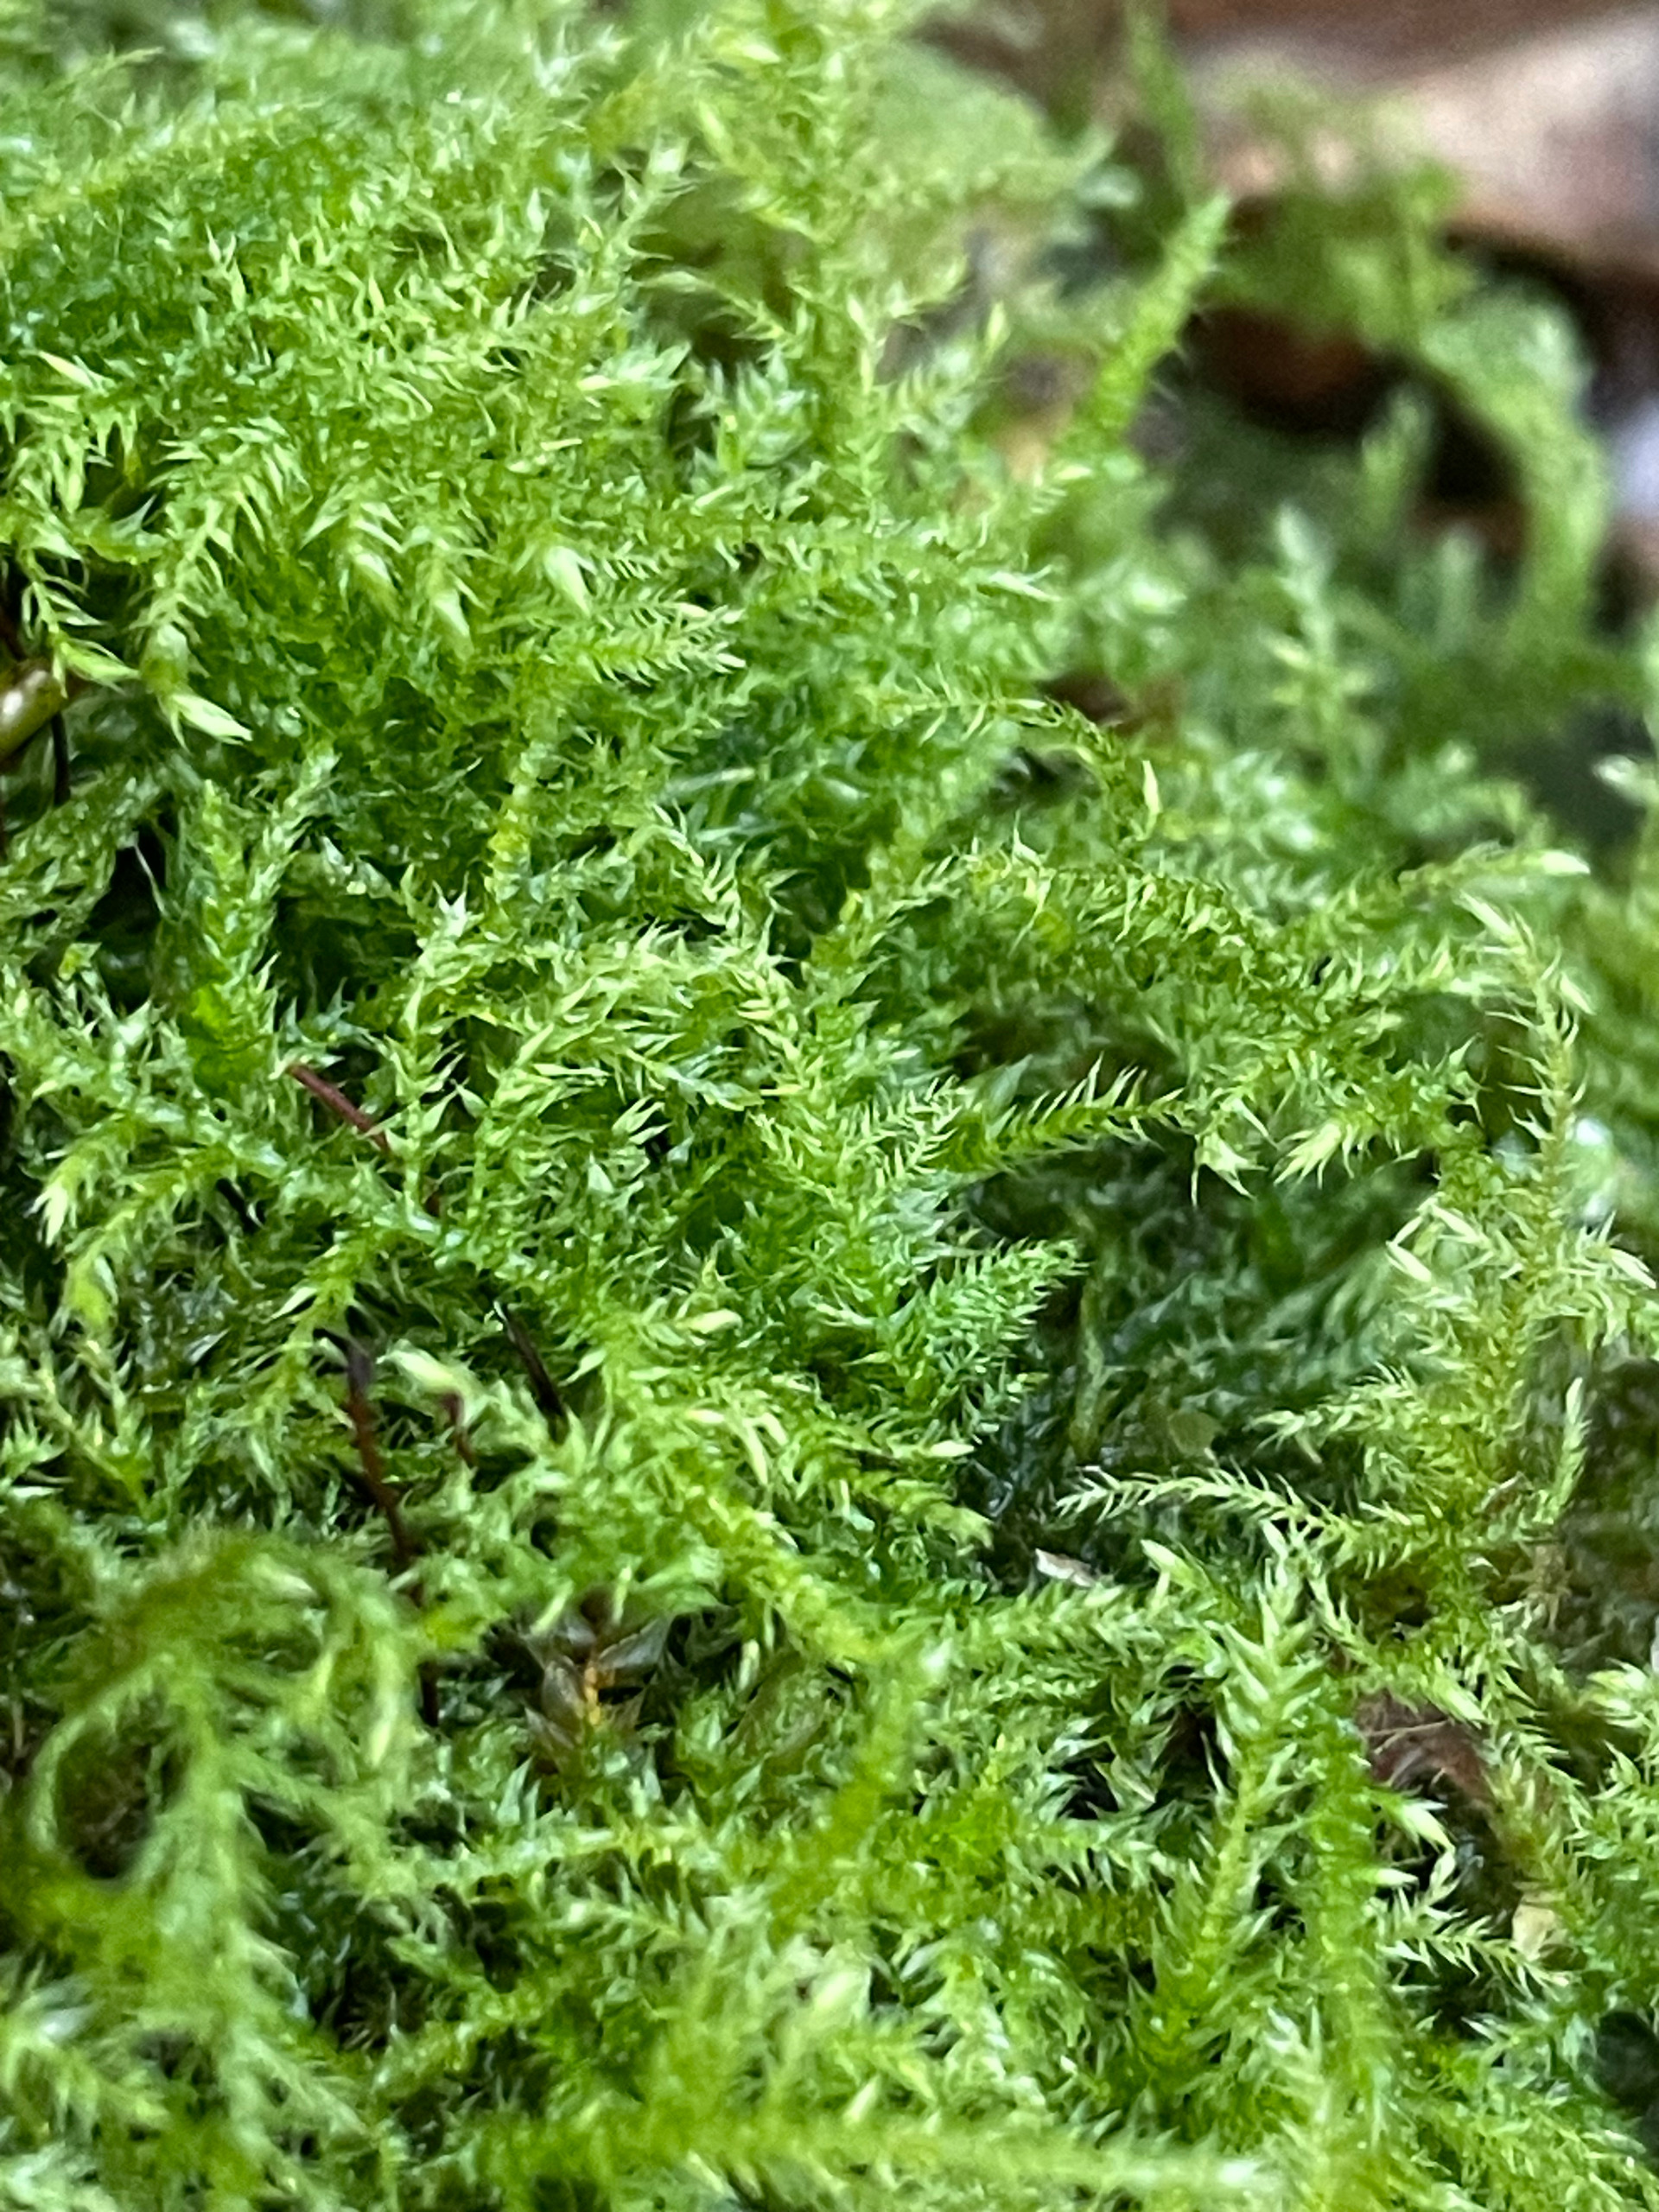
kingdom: Plantae
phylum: Bryophyta
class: Bryopsida
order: Hypnales
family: Brachytheciaceae
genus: Kindbergia
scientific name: Kindbergia praelonga
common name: Forskelligbladet vortetand
